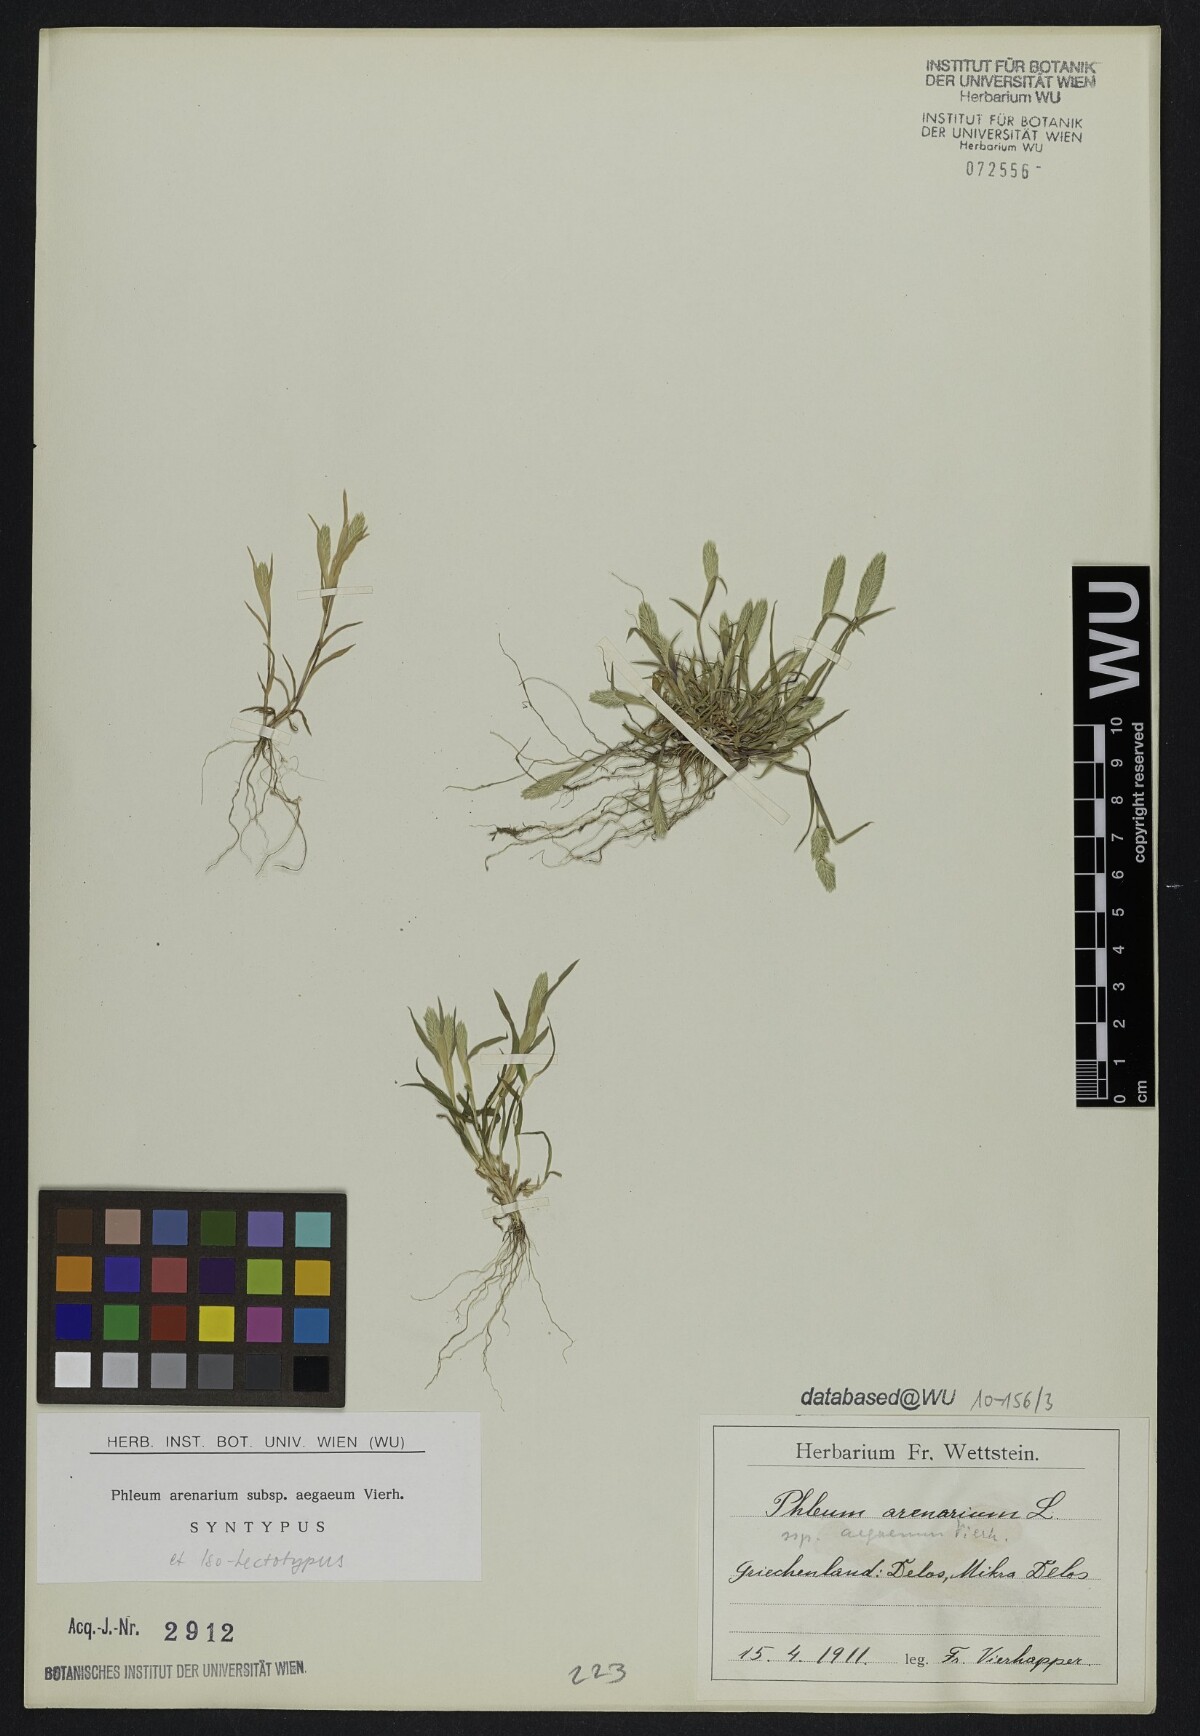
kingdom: Plantae
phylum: Tracheophyta
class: Liliopsida
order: Poales
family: Poaceae
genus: Phleum
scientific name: Phleum exaratum
